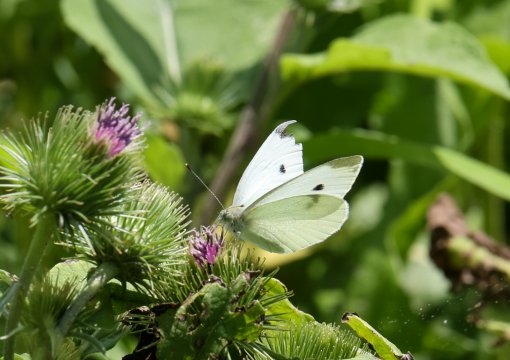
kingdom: Animalia
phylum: Arthropoda
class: Insecta
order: Lepidoptera
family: Pieridae
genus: Pieris
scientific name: Pieris rapae
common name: Cabbage White
